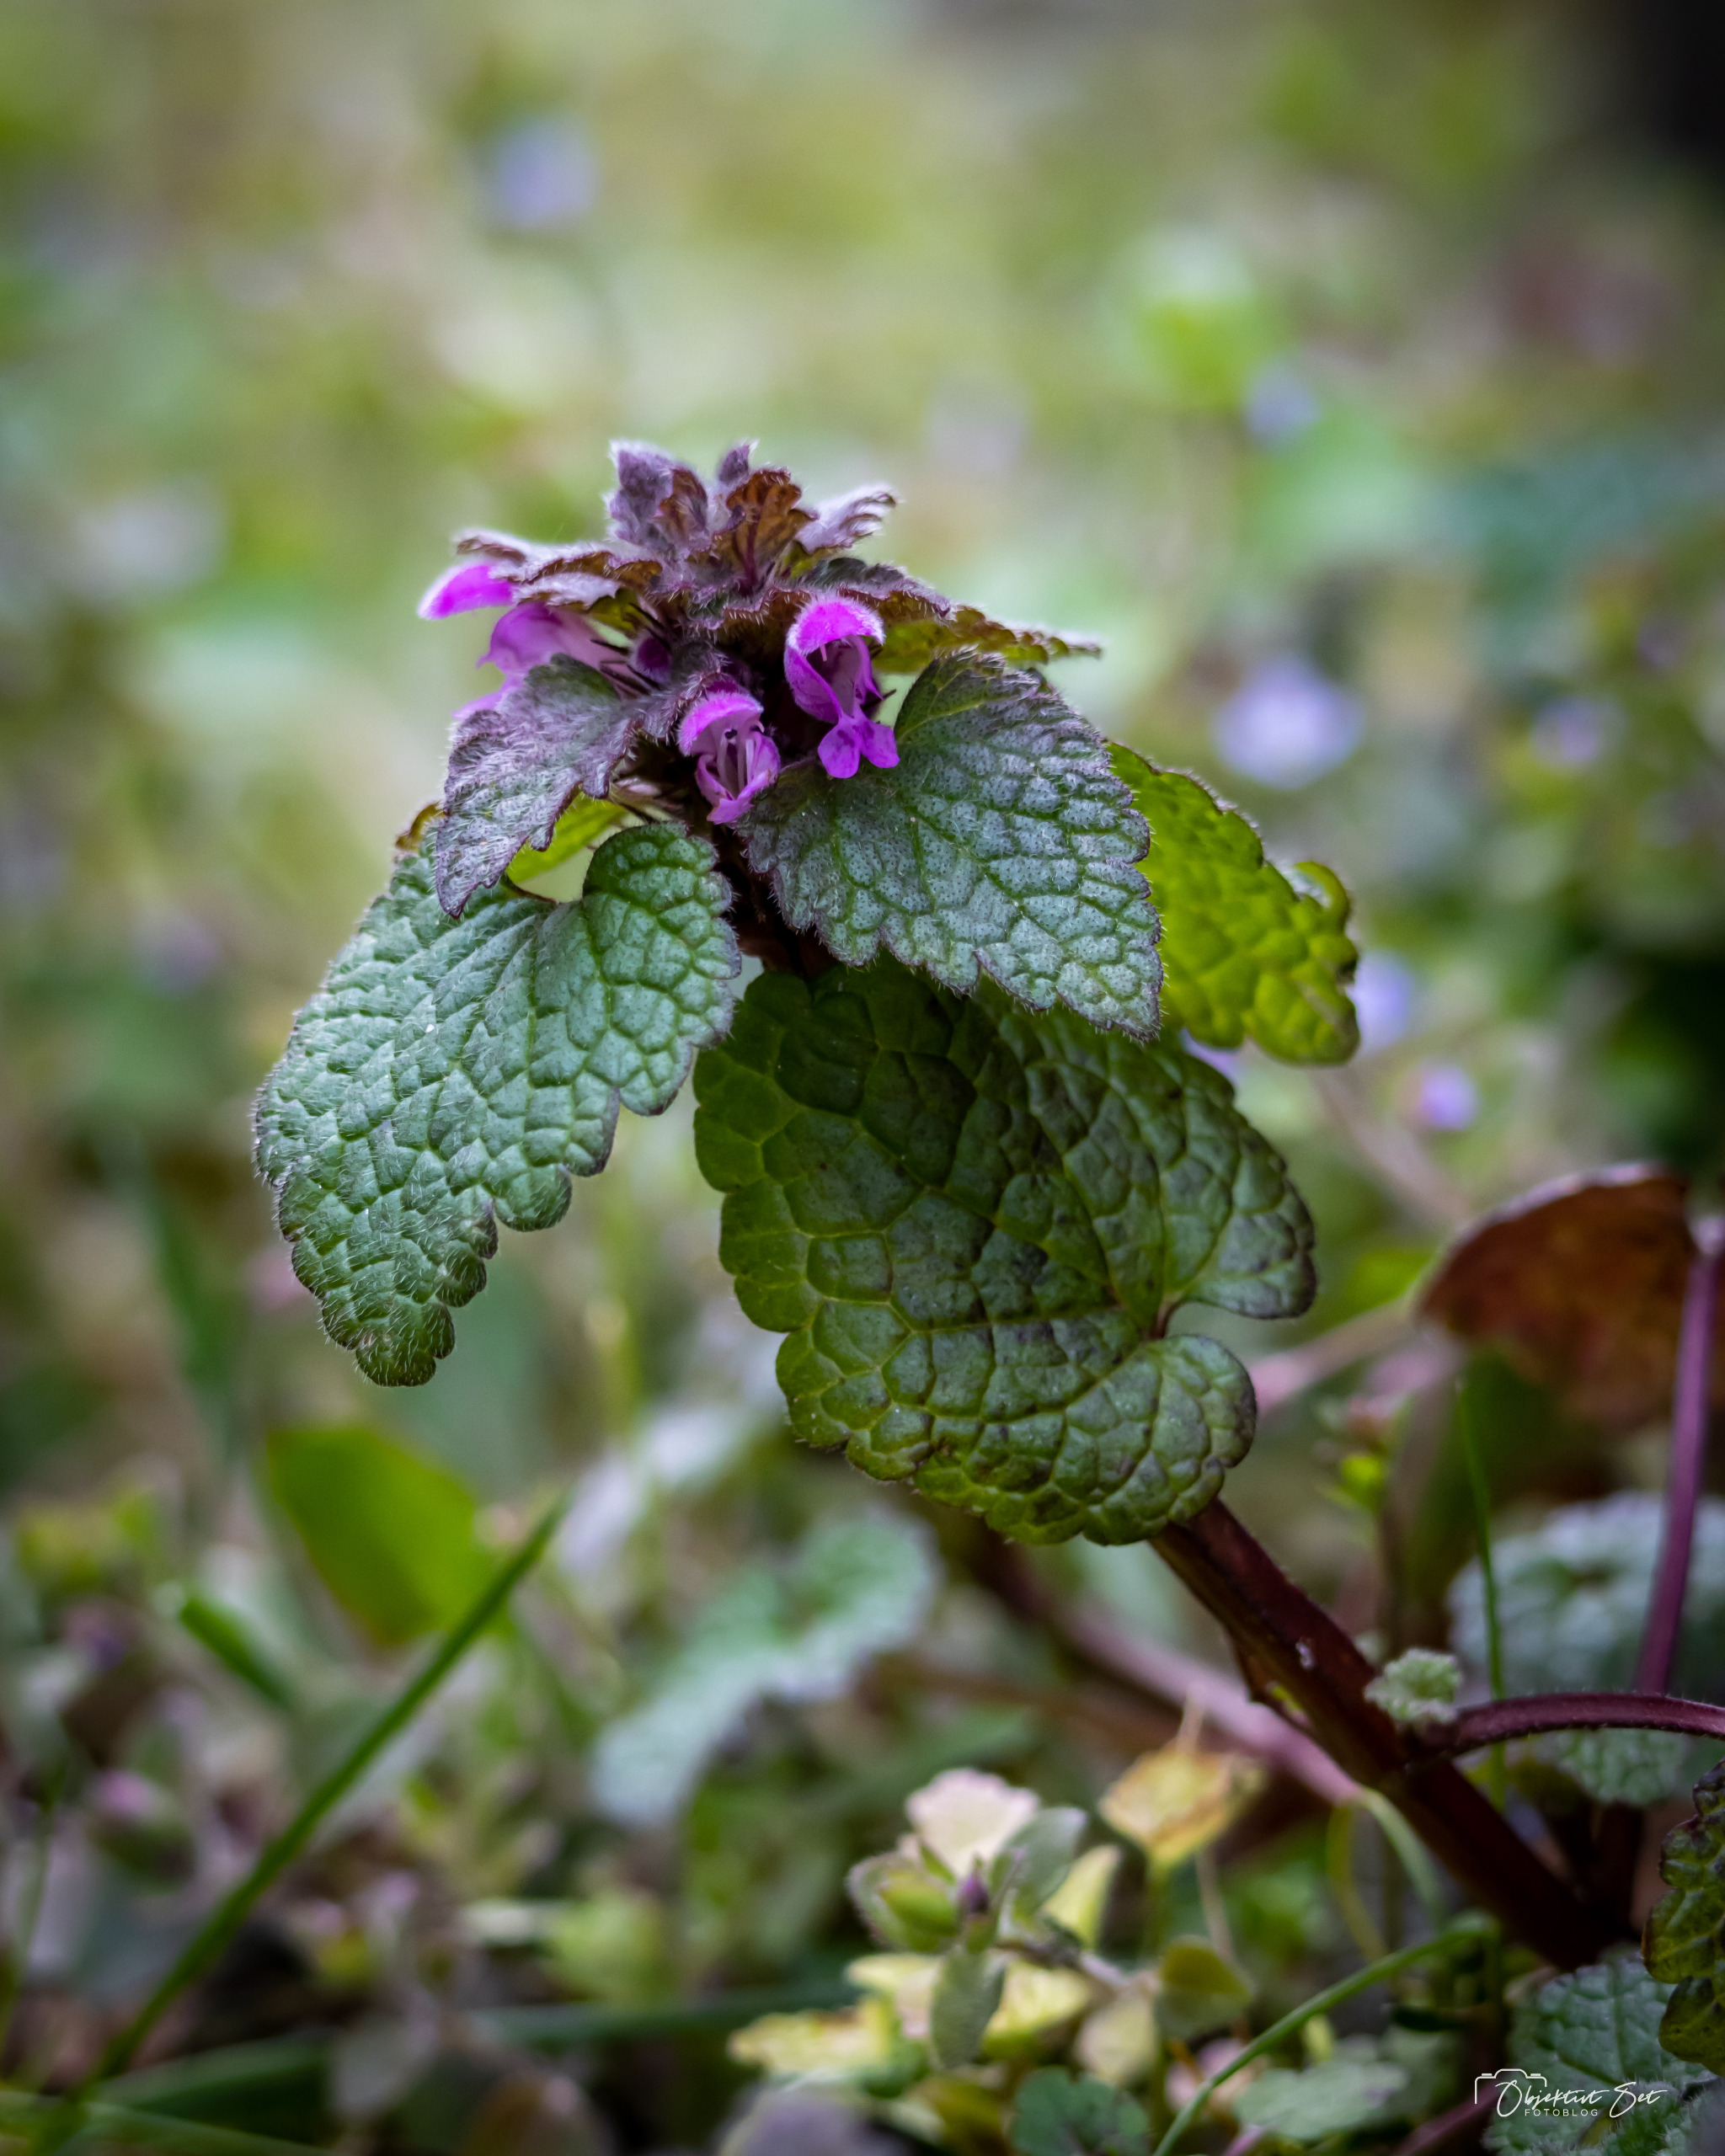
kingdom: Plantae
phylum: Tracheophyta
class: Magnoliopsida
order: Lamiales
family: Lamiaceae
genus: Lamium
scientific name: Lamium purpureum
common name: Rød tvetand
